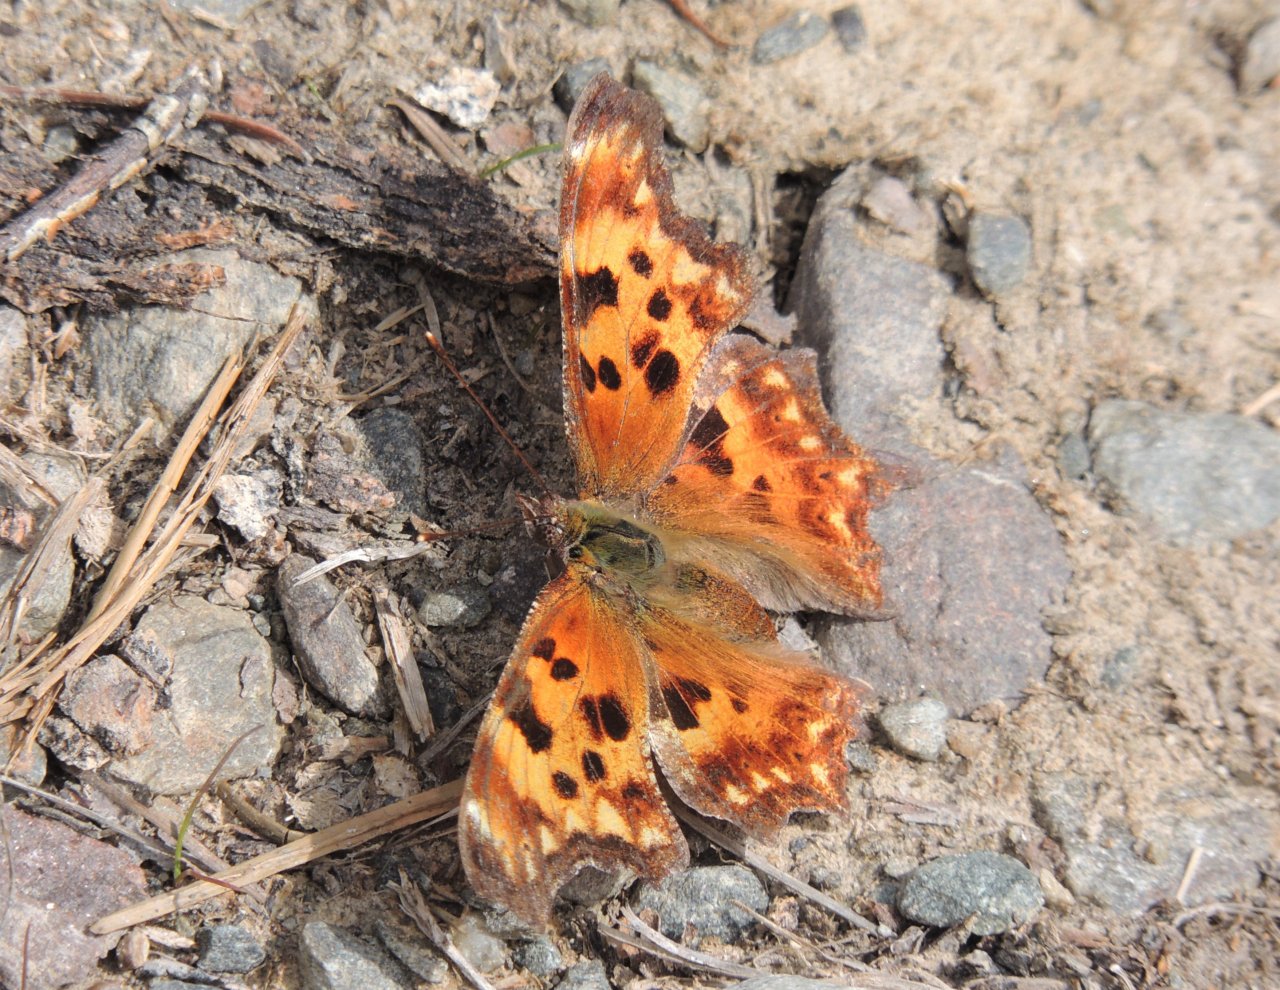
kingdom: Animalia
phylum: Arthropoda
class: Insecta
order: Lepidoptera
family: Nymphalidae
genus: Polygonia
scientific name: Polygonia oreas
